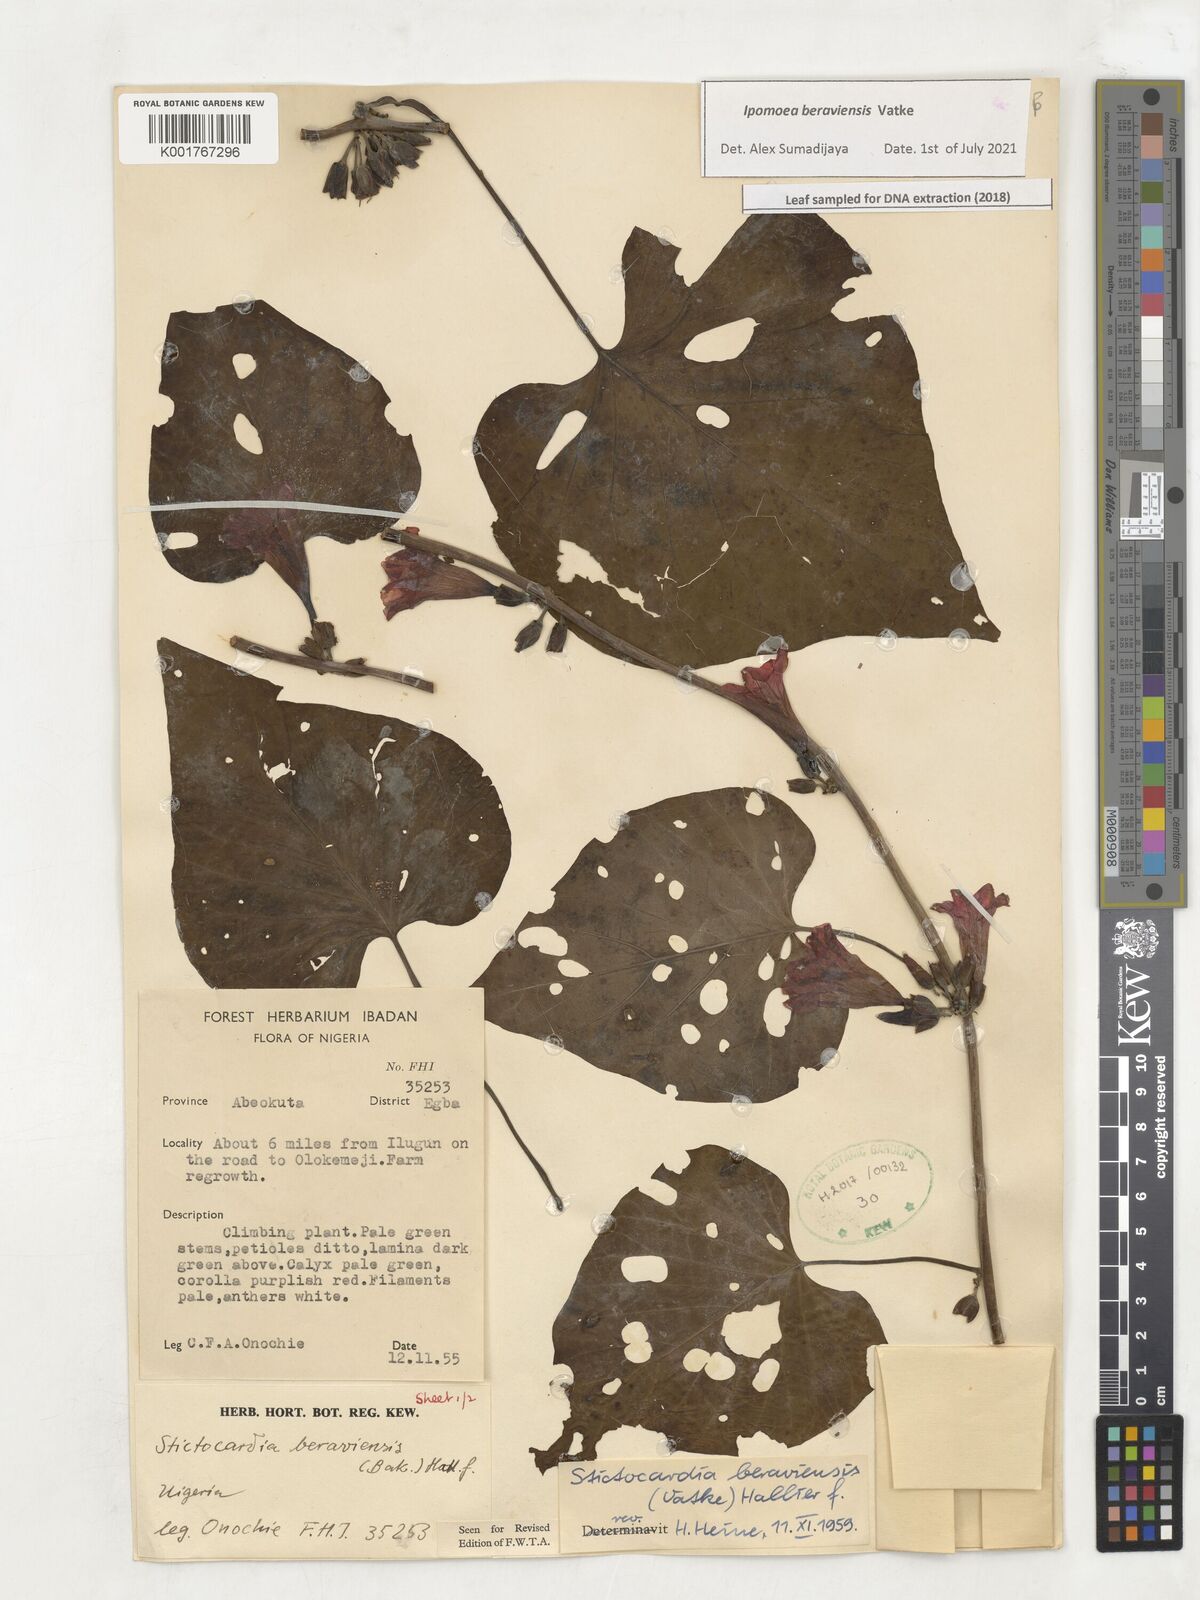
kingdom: Plantae
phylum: Tracheophyta
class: Magnoliopsida
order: Solanales
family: Convolvulaceae
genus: Stictocardia
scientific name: Stictocardia beraviensis
